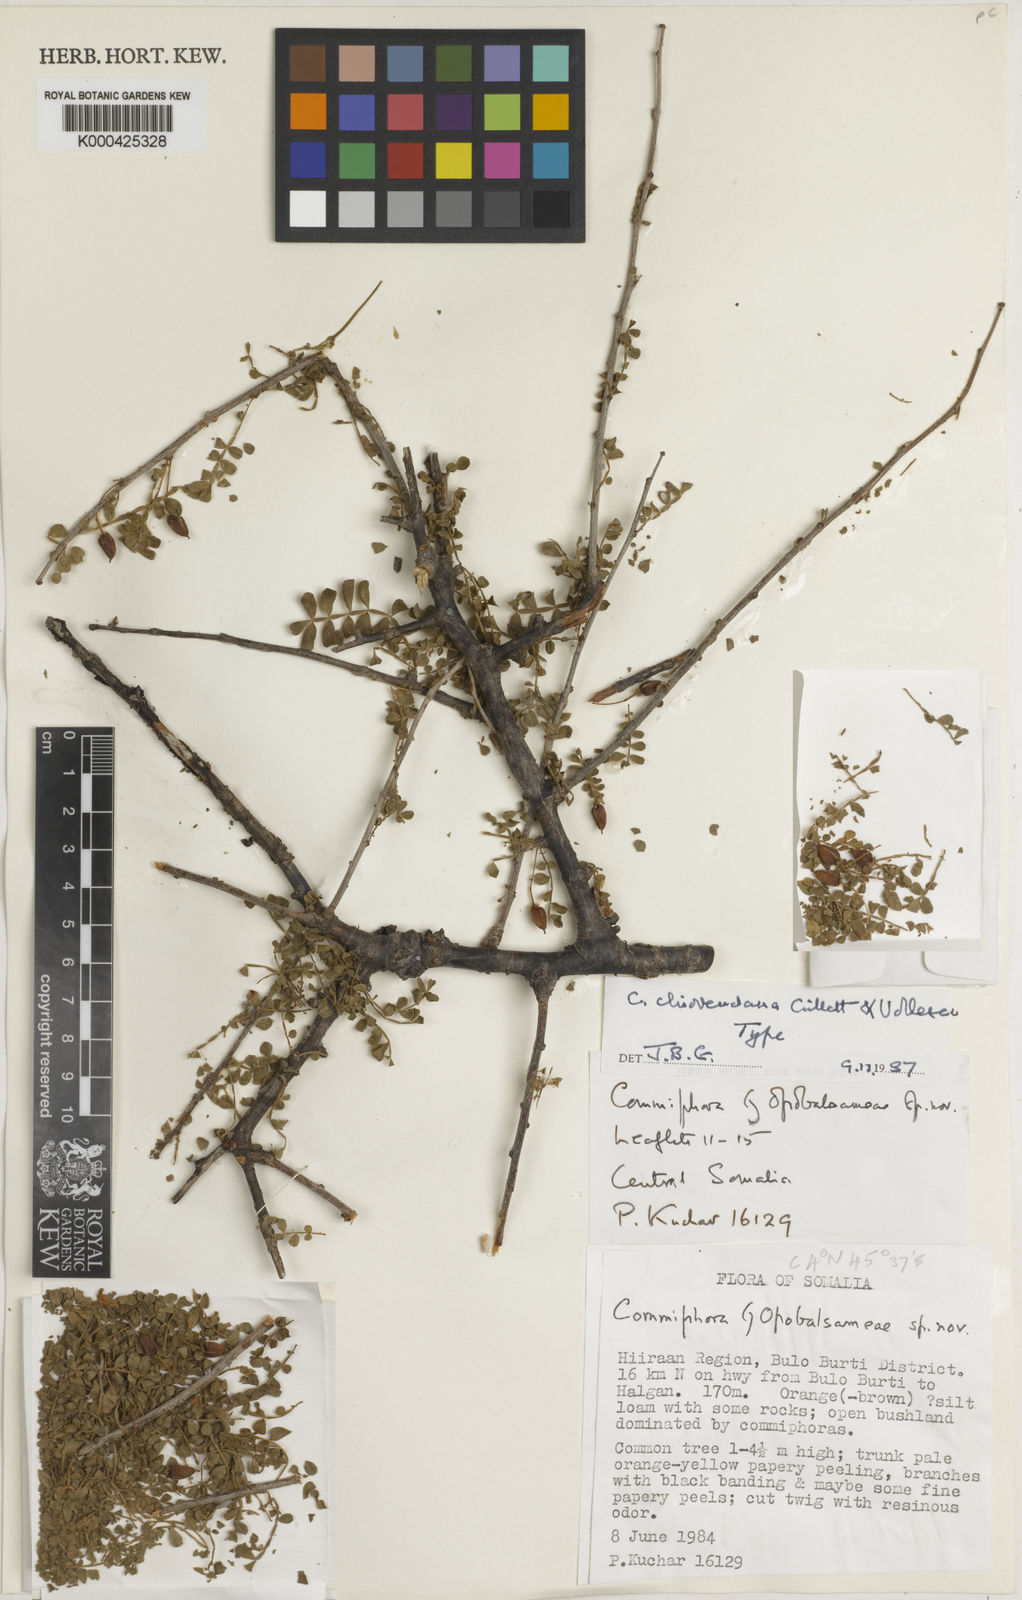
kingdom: Plantae
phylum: Tracheophyta
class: Magnoliopsida
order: Sapindales
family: Burseraceae
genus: Commiphora
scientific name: Commiphora chiovendana
